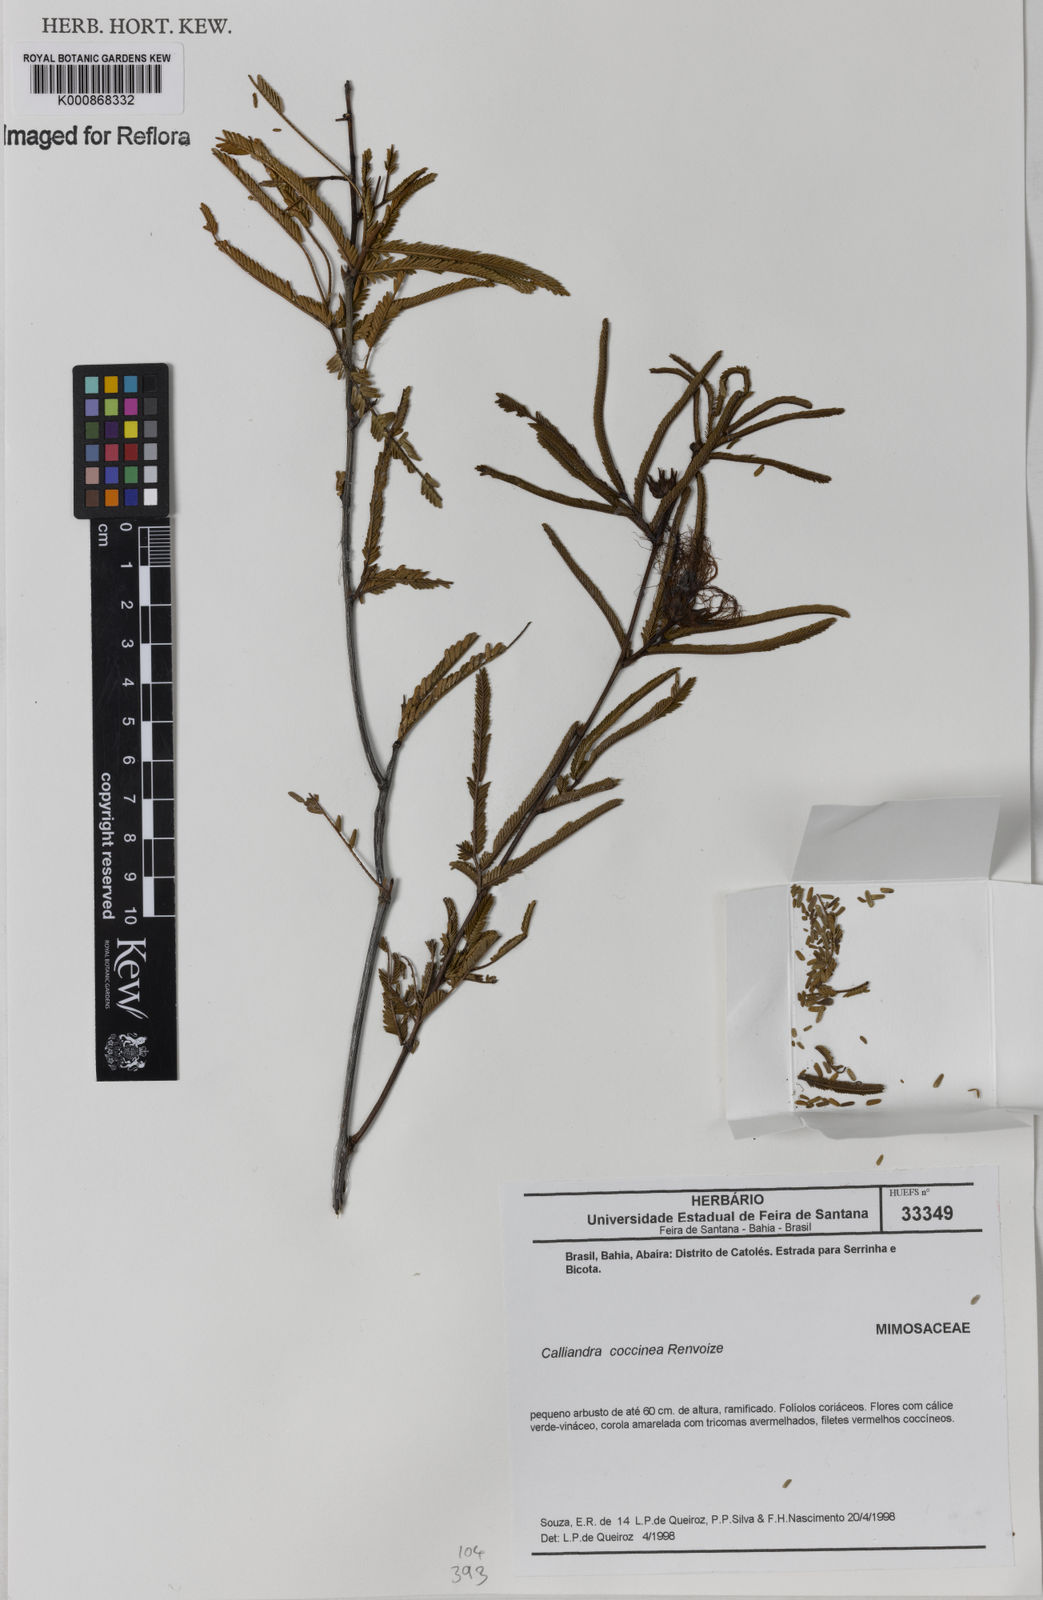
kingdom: Plantae
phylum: Tracheophyta
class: Magnoliopsida
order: Fabales
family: Fabaceae
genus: Calliandra
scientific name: Calliandra coccinea
